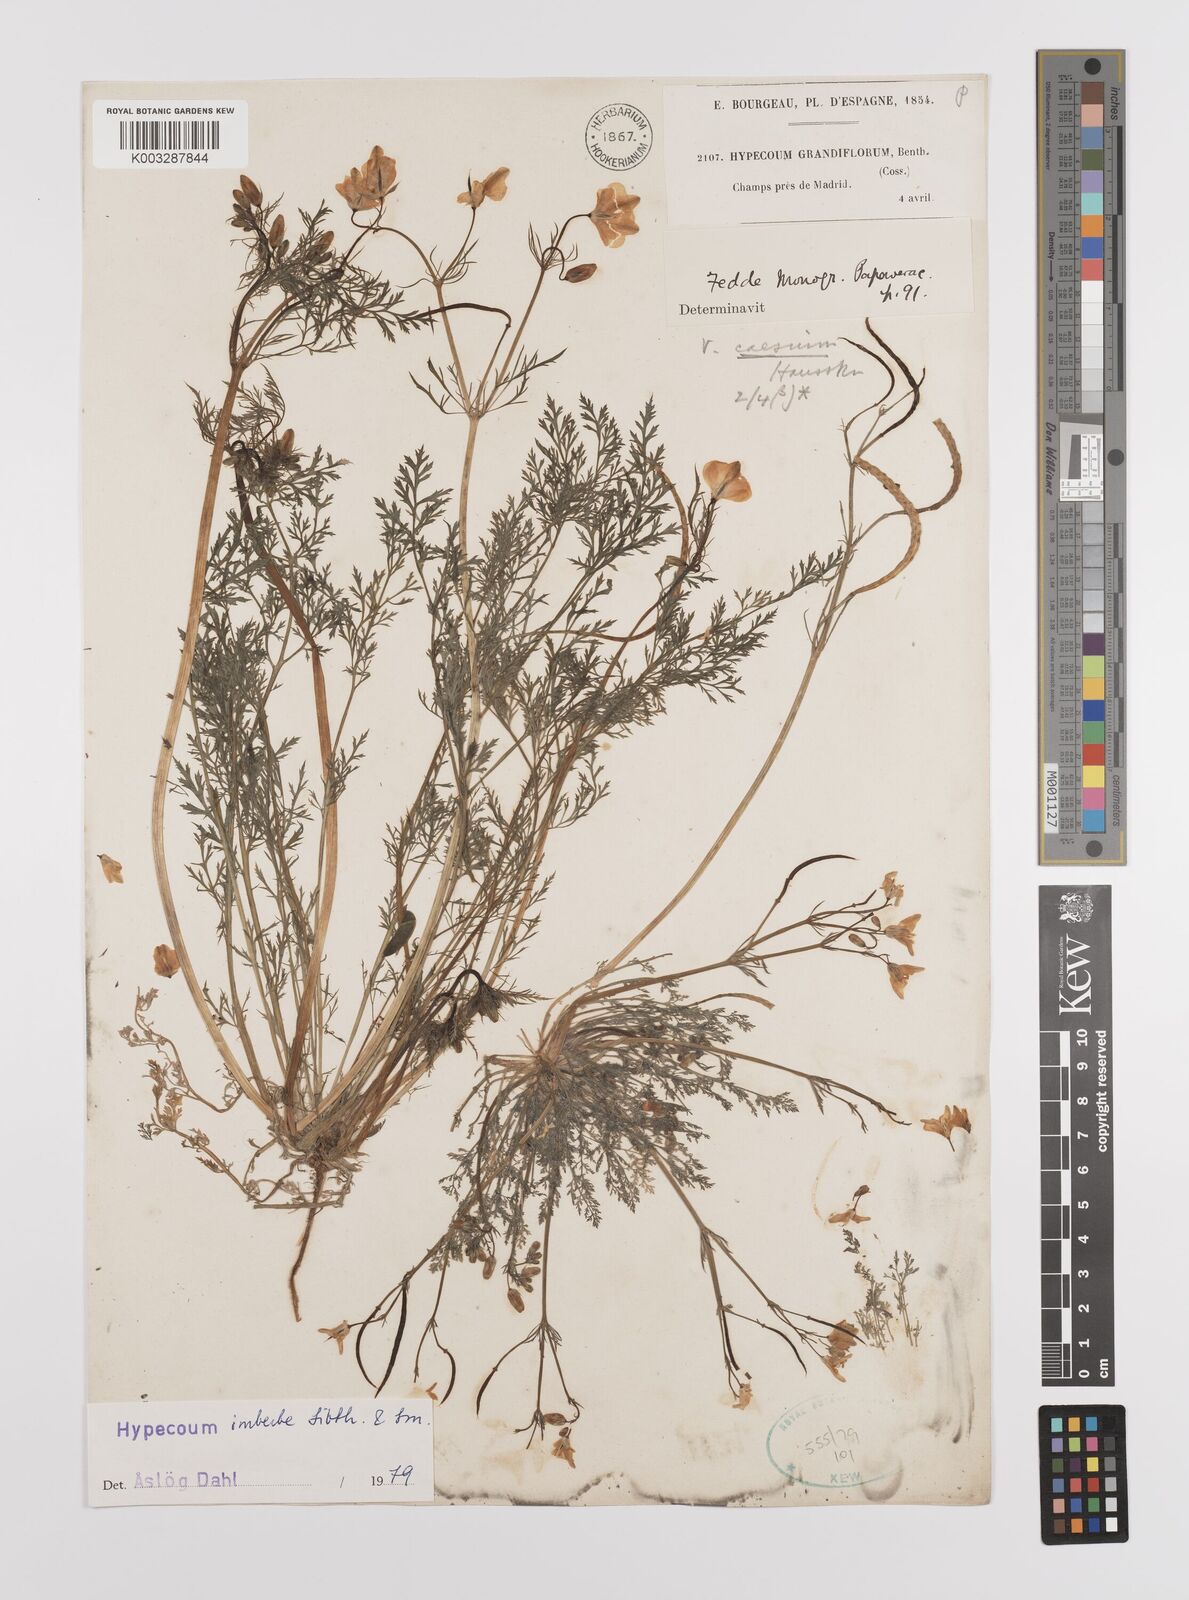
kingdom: Plantae
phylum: Tracheophyta
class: Magnoliopsida
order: Ranunculales
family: Papaveraceae
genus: Hypecoum
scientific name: Hypecoum imberbe
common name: Sicklefruit hypecoum
